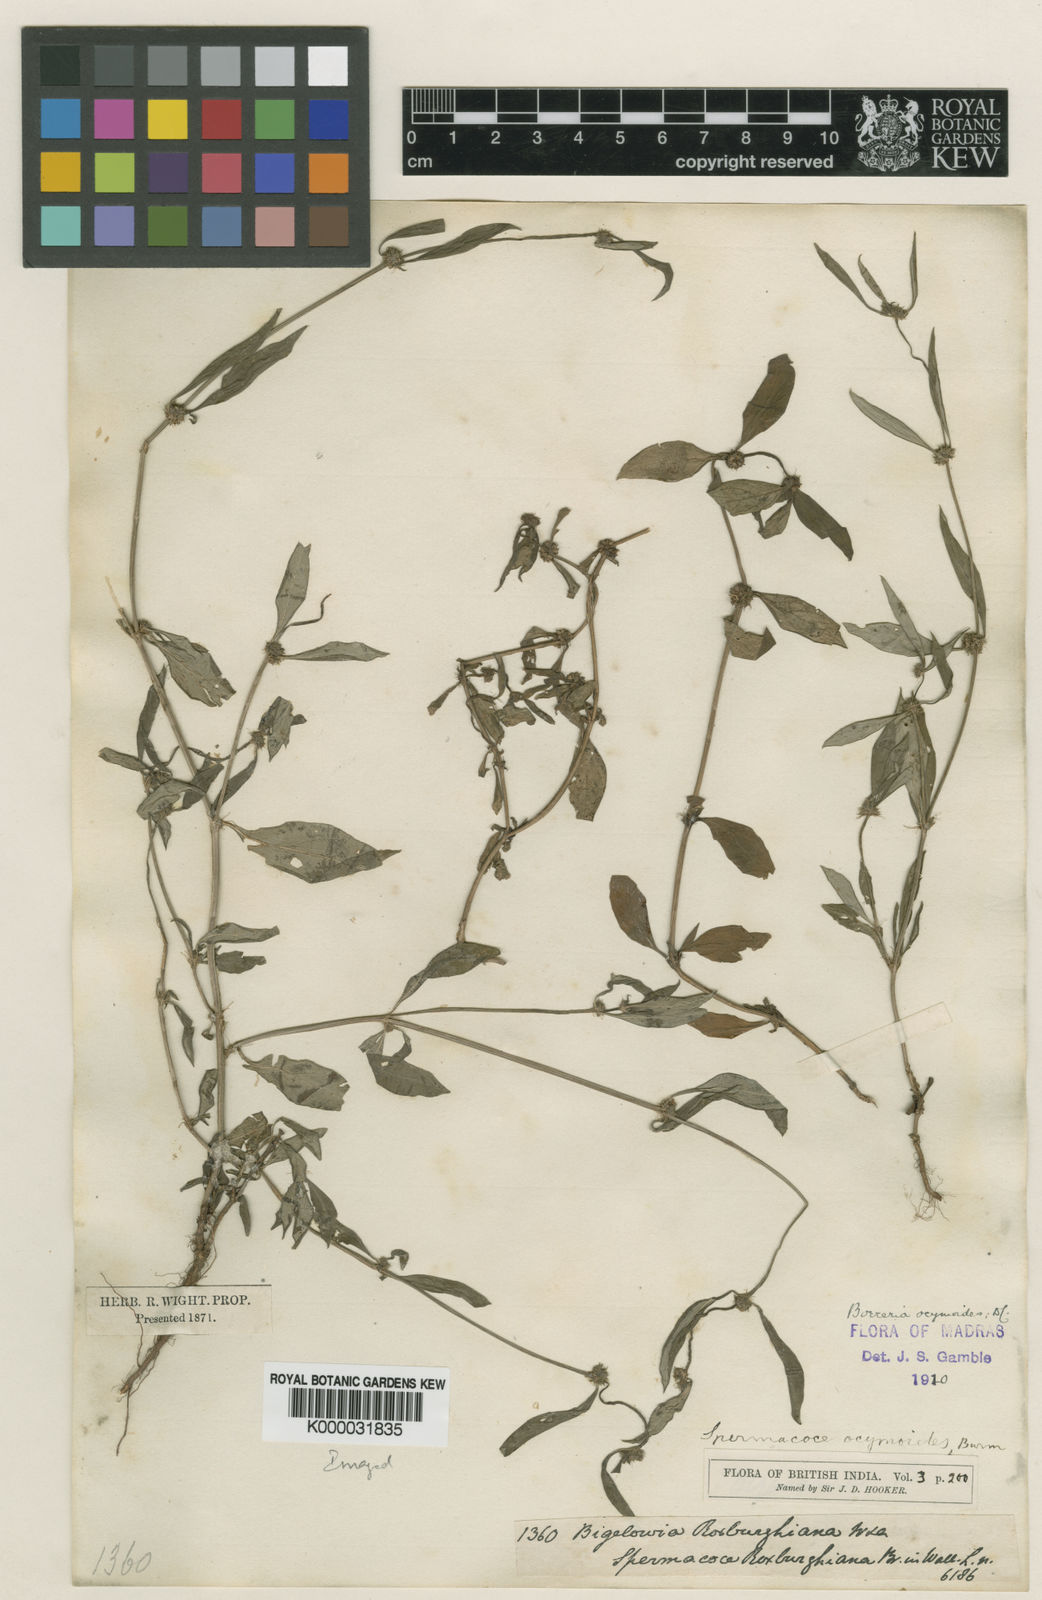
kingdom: Plantae
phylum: Tracheophyta
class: Magnoliopsida
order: Gentianales
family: Rubiaceae
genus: Spermacoce
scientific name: Spermacoce ocymoides
